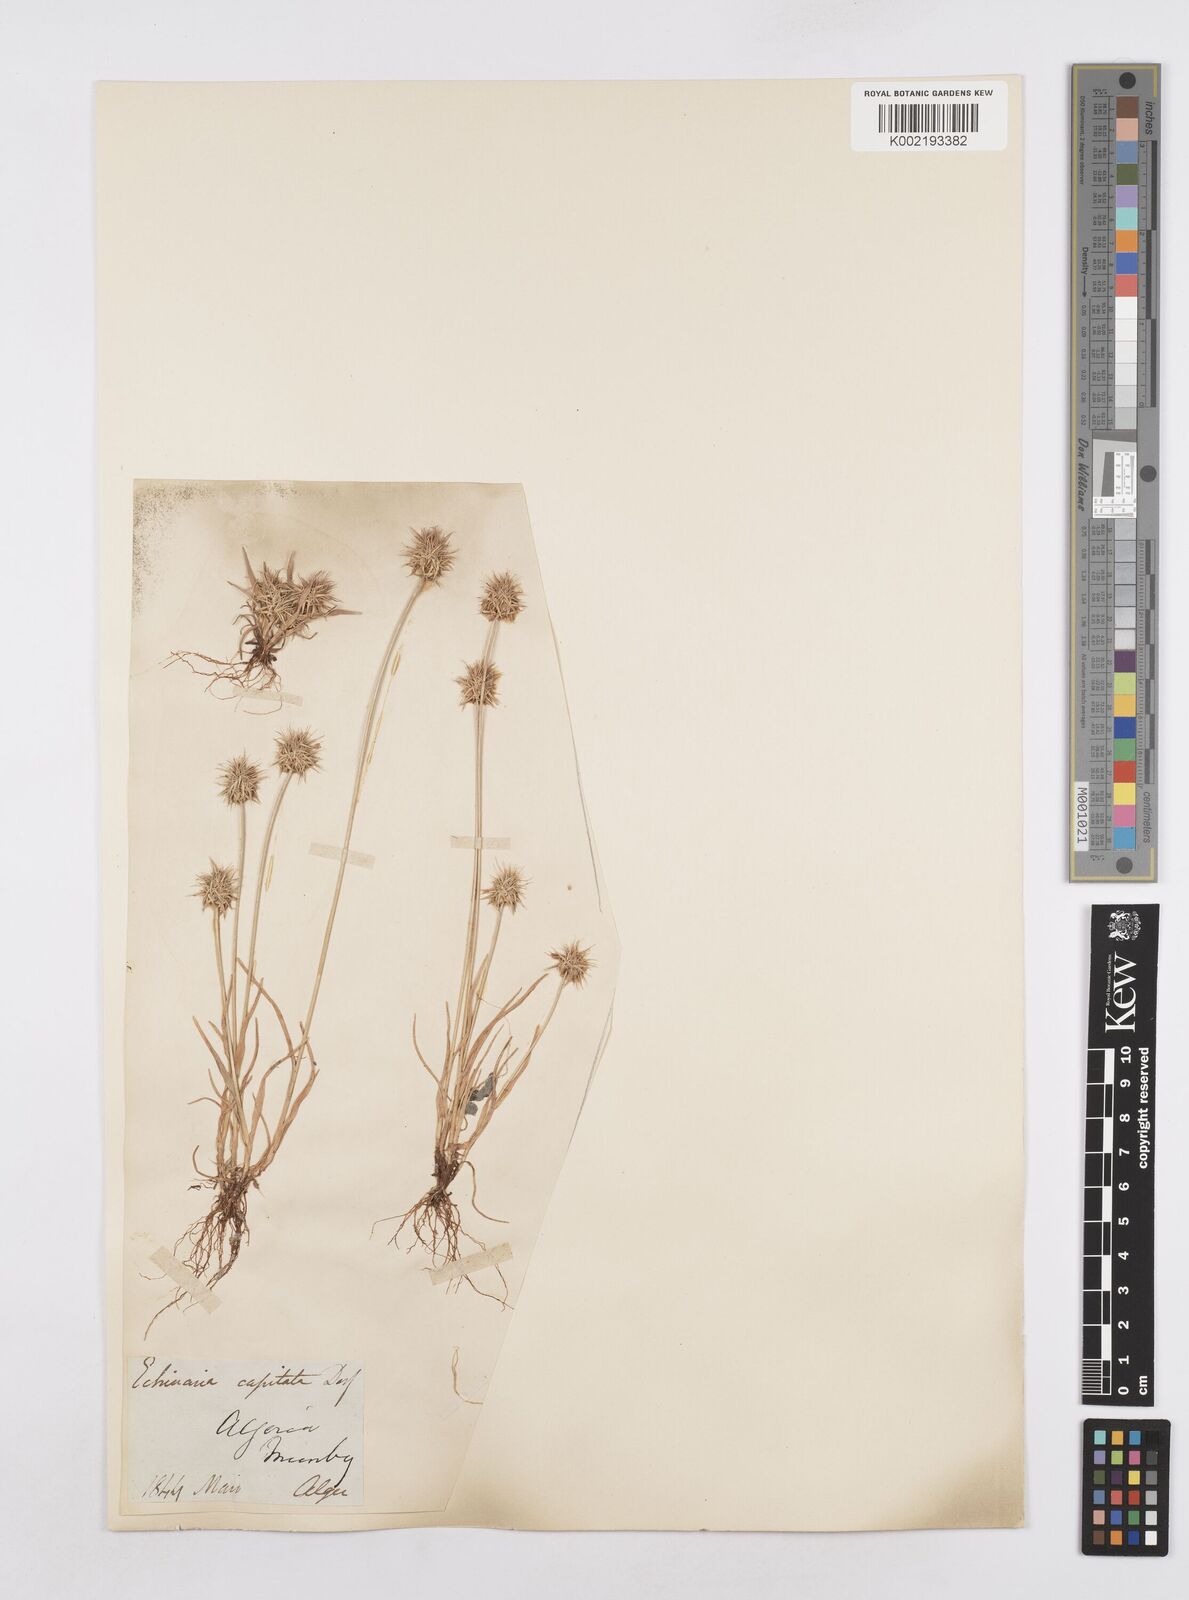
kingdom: Plantae
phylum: Tracheophyta
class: Liliopsida
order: Poales
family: Poaceae
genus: Echinaria
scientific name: Echinaria capitata
